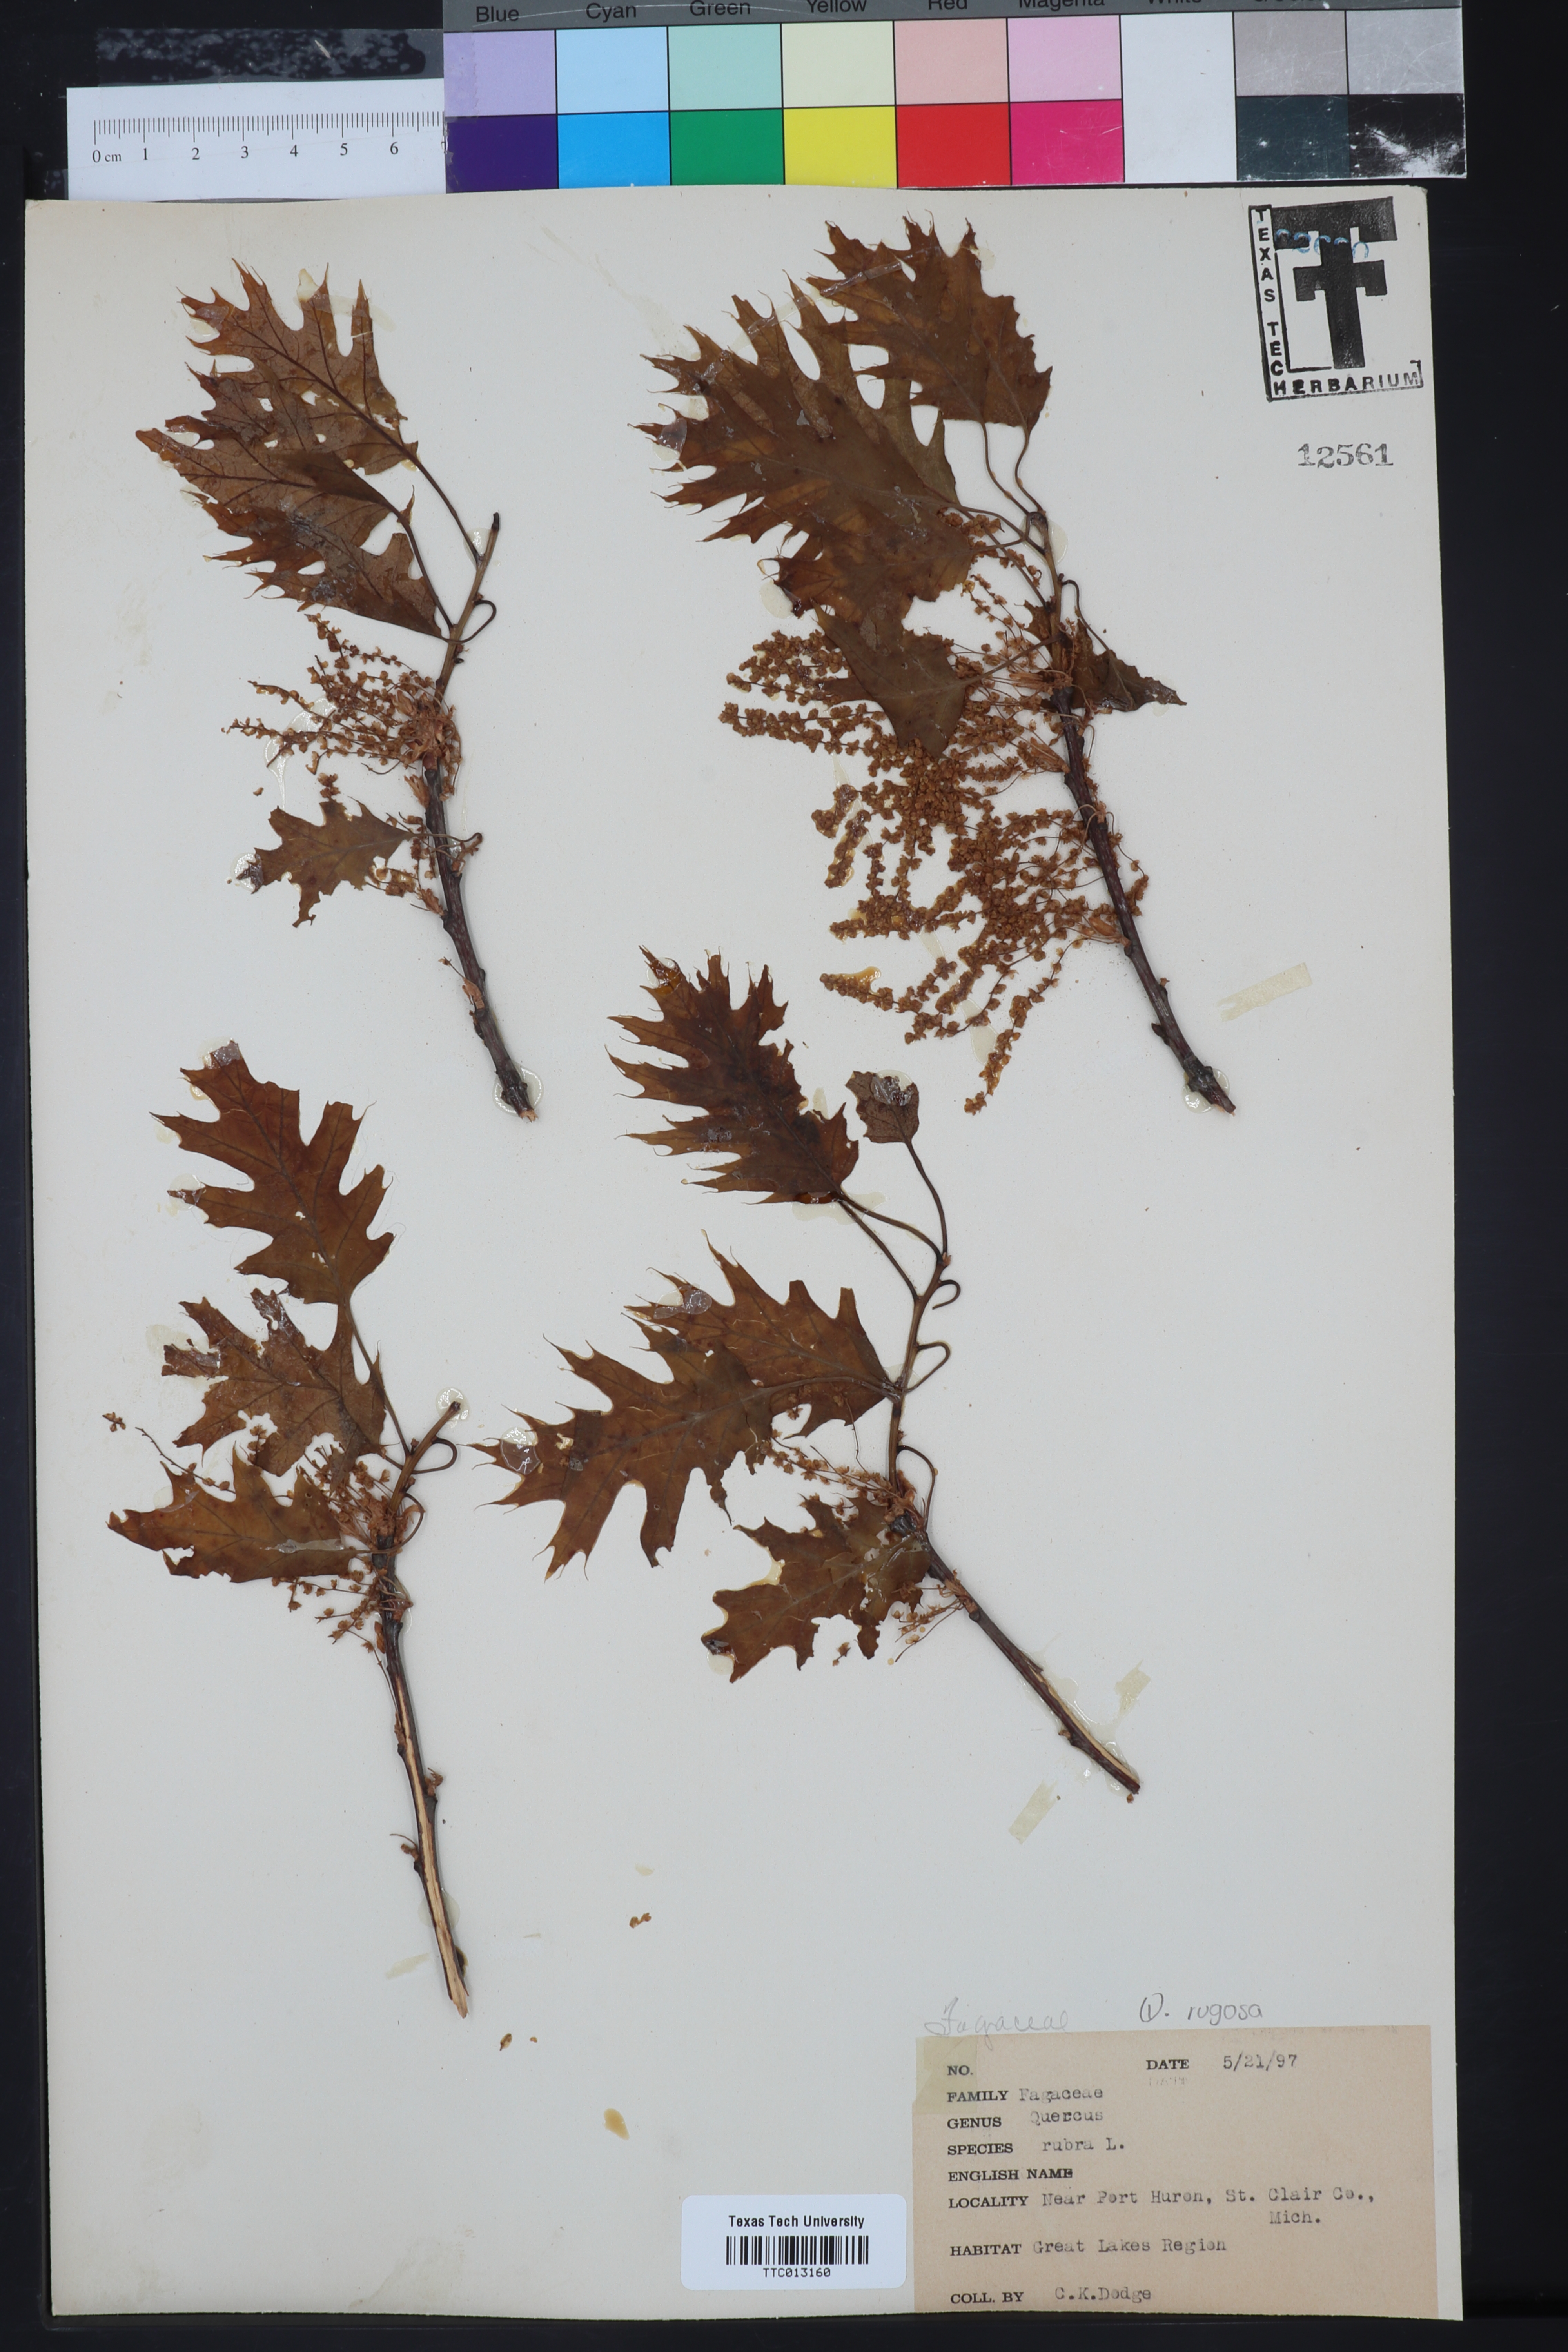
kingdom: Plantae
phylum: Tracheophyta
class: Magnoliopsida
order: Fagales
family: Fagaceae
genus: Quercus
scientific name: Quercus rubra
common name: Red oak
